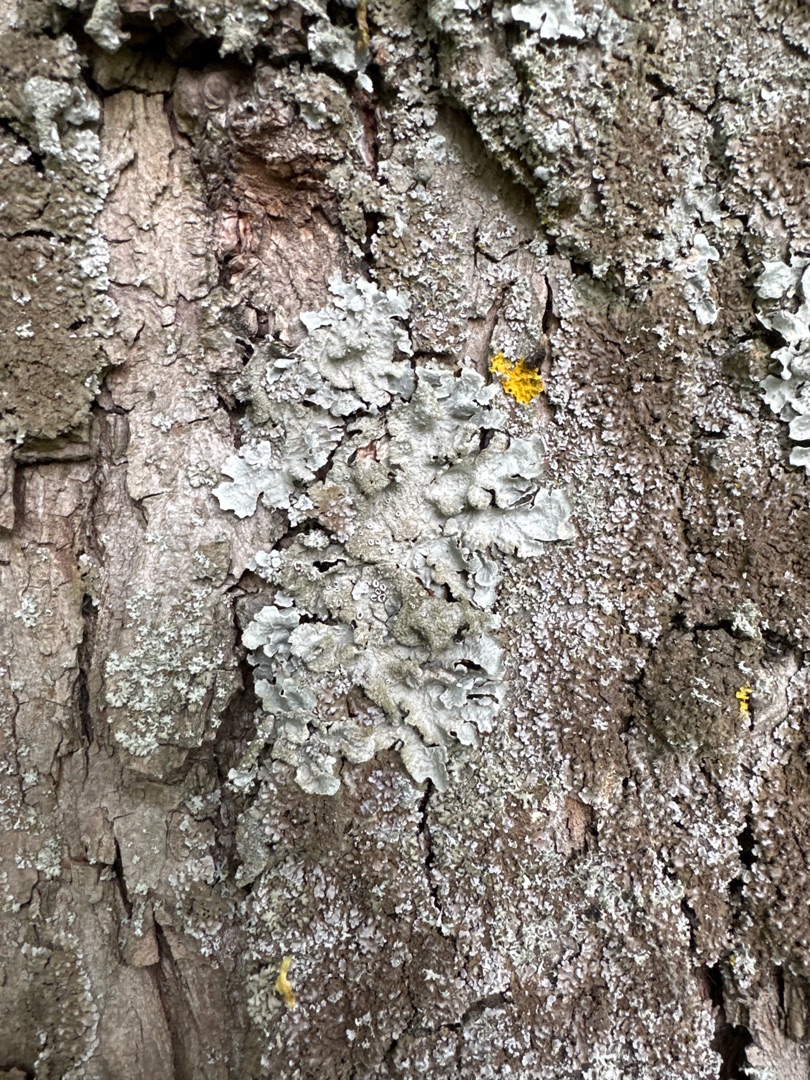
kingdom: Fungi
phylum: Ascomycota
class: Lecanoromycetes
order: Lecanorales
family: Parmeliaceae
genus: Parmelia
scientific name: Parmelia sulcata
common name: Rynket skållav
